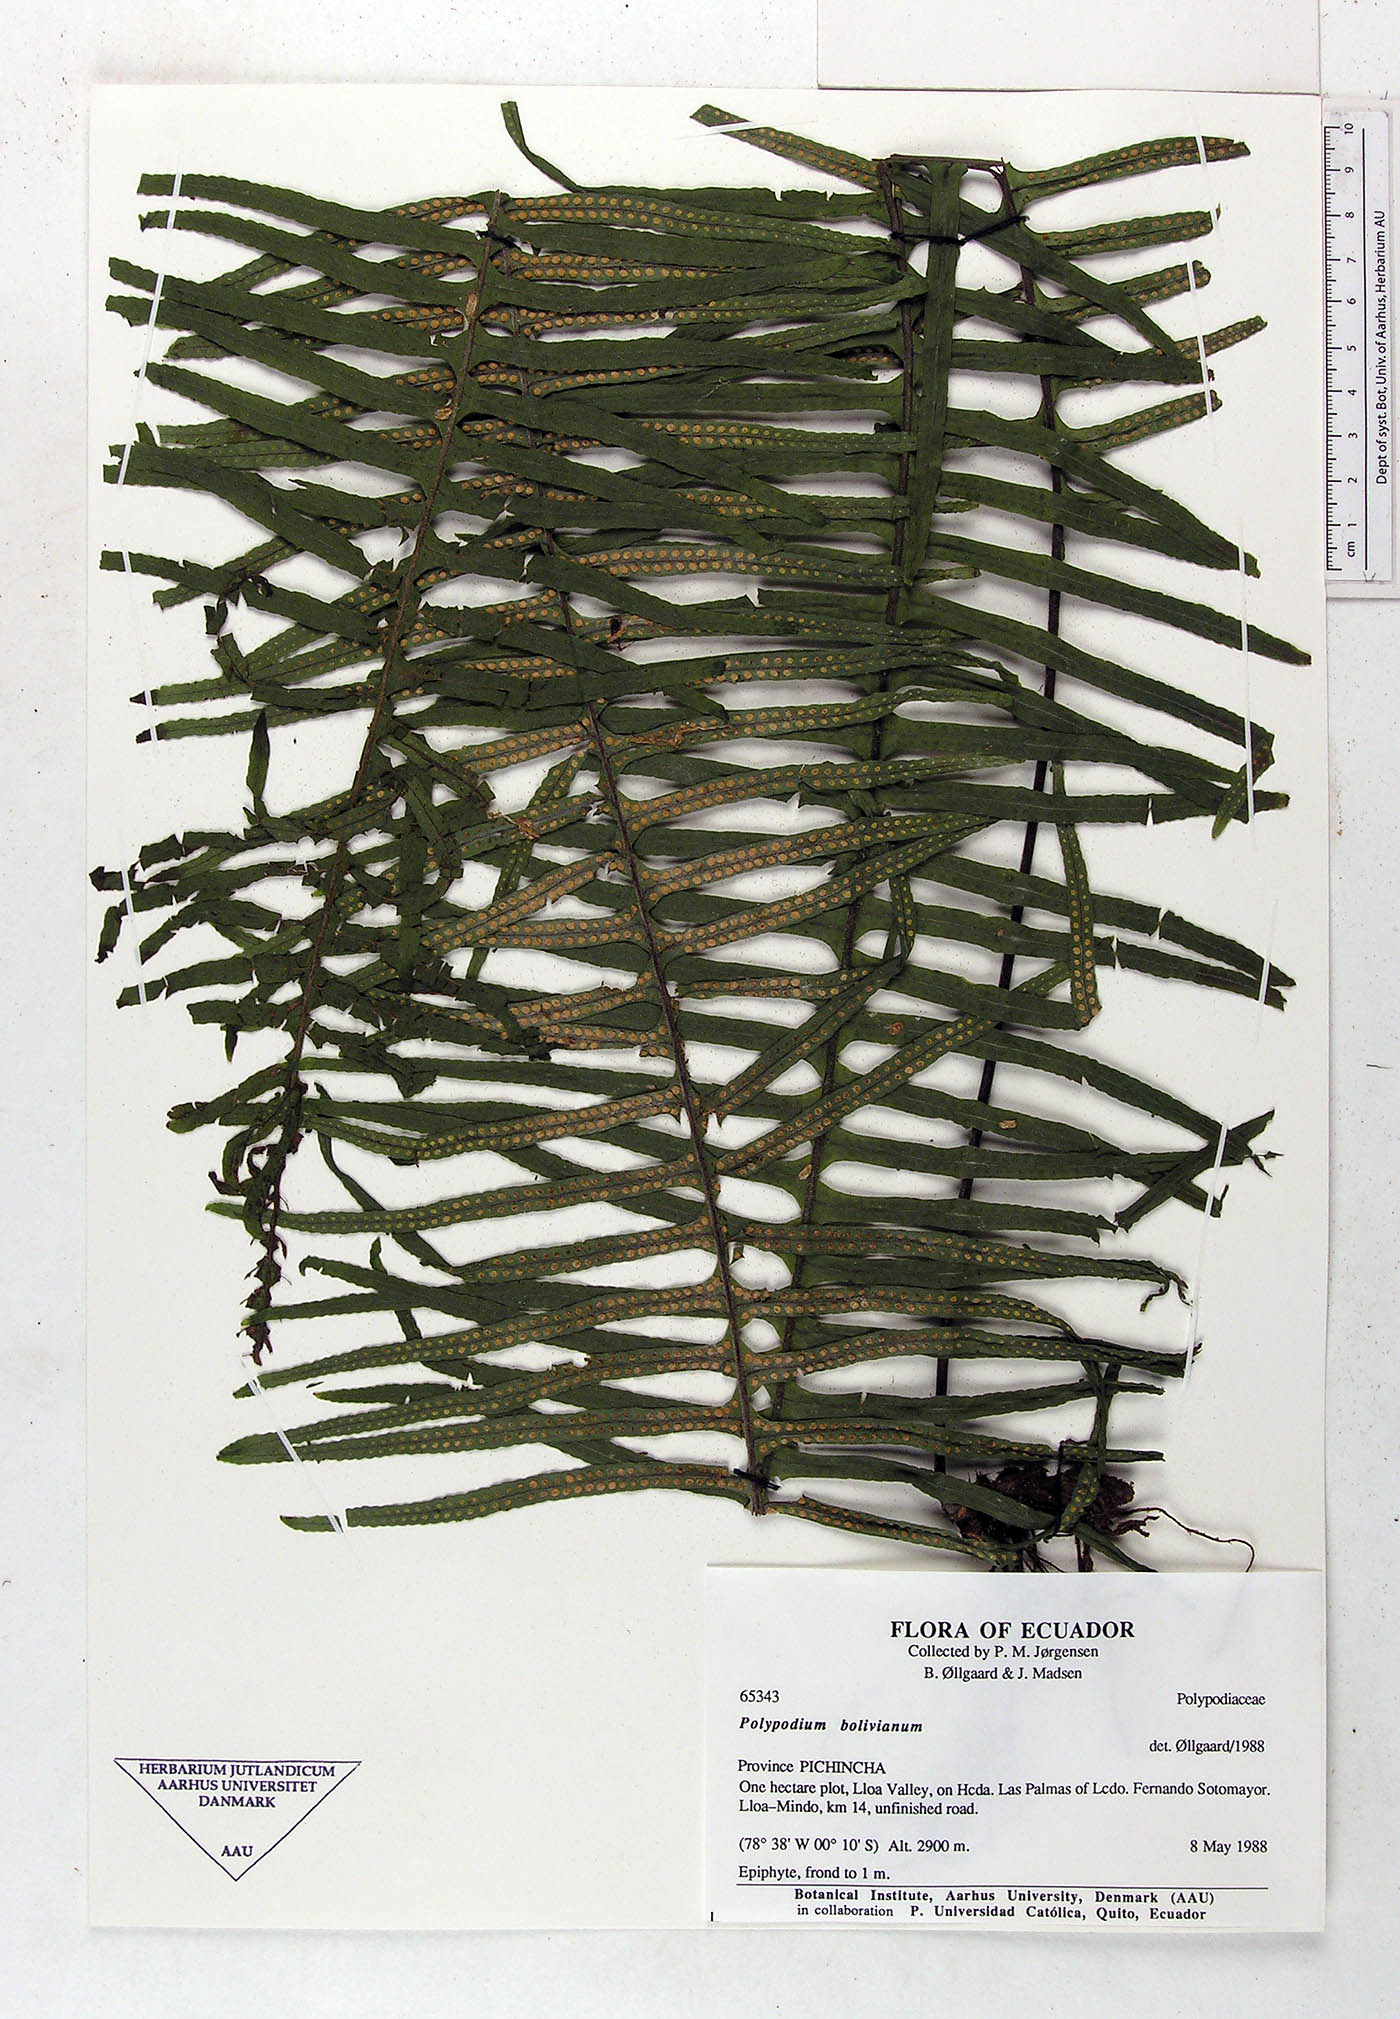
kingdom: Plantae
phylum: Tracheophyta
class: Polypodiopsida
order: Polypodiales
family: Polypodiaceae
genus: Pecluma
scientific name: Pecluma divaricata
